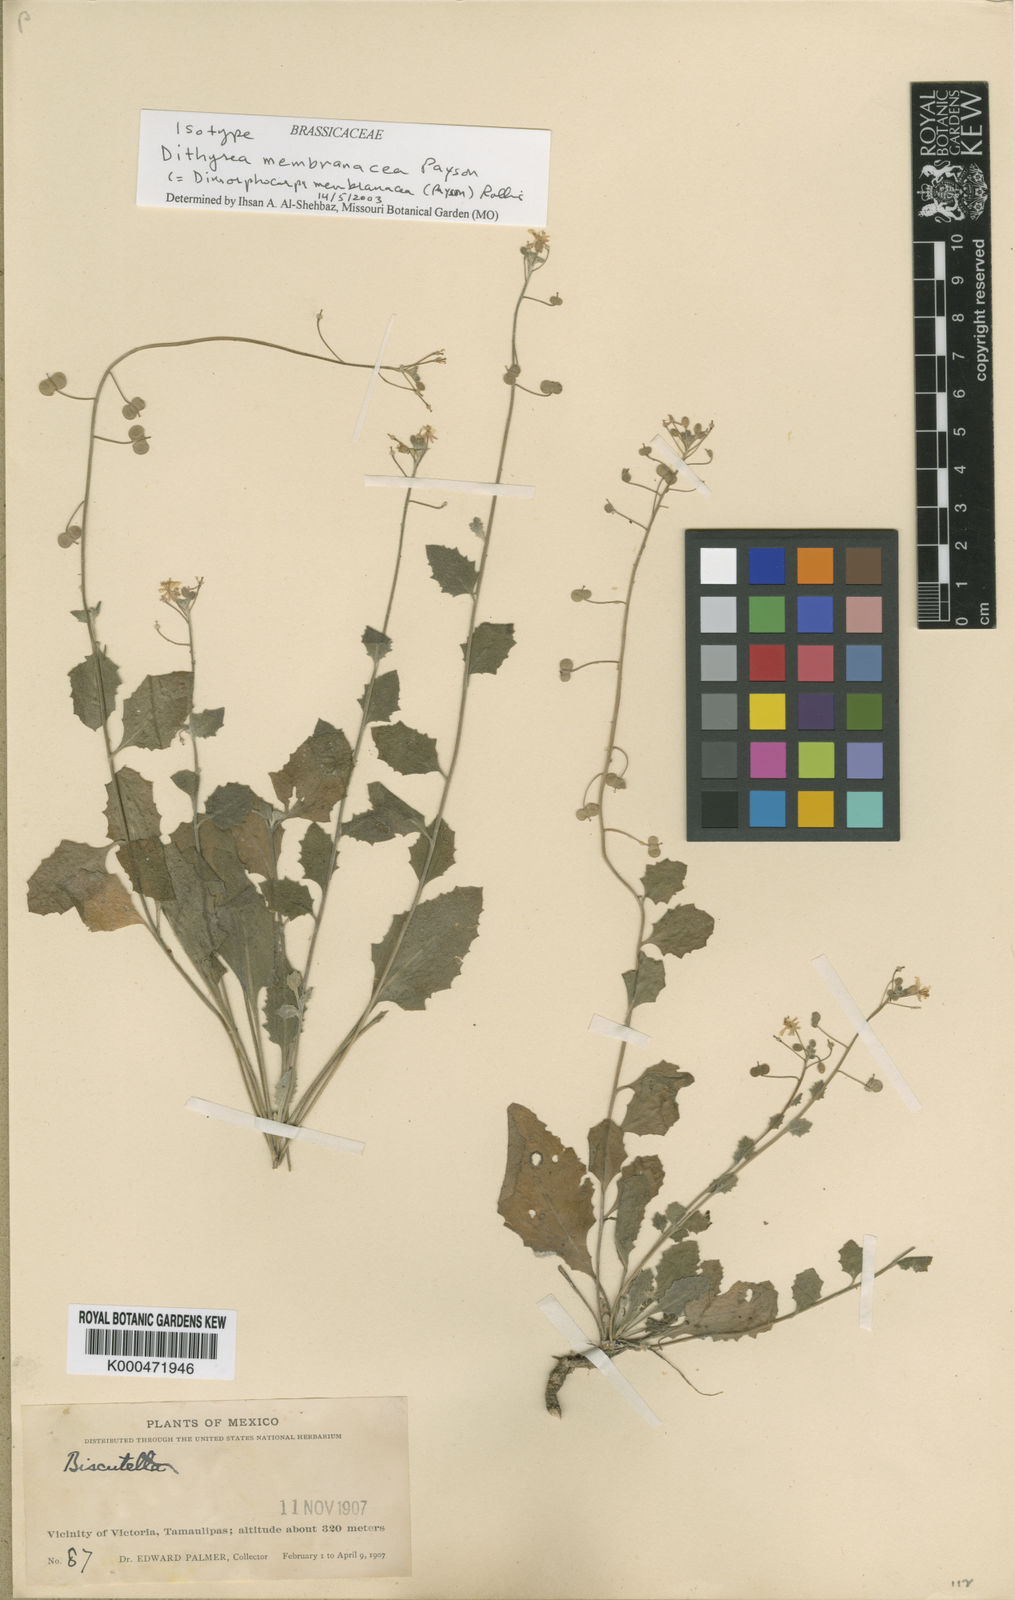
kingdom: Plantae
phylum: Tracheophyta
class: Magnoliopsida
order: Brassicales
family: Brassicaceae
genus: Dimorphocarpa
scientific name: Dimorphocarpa membranacea
